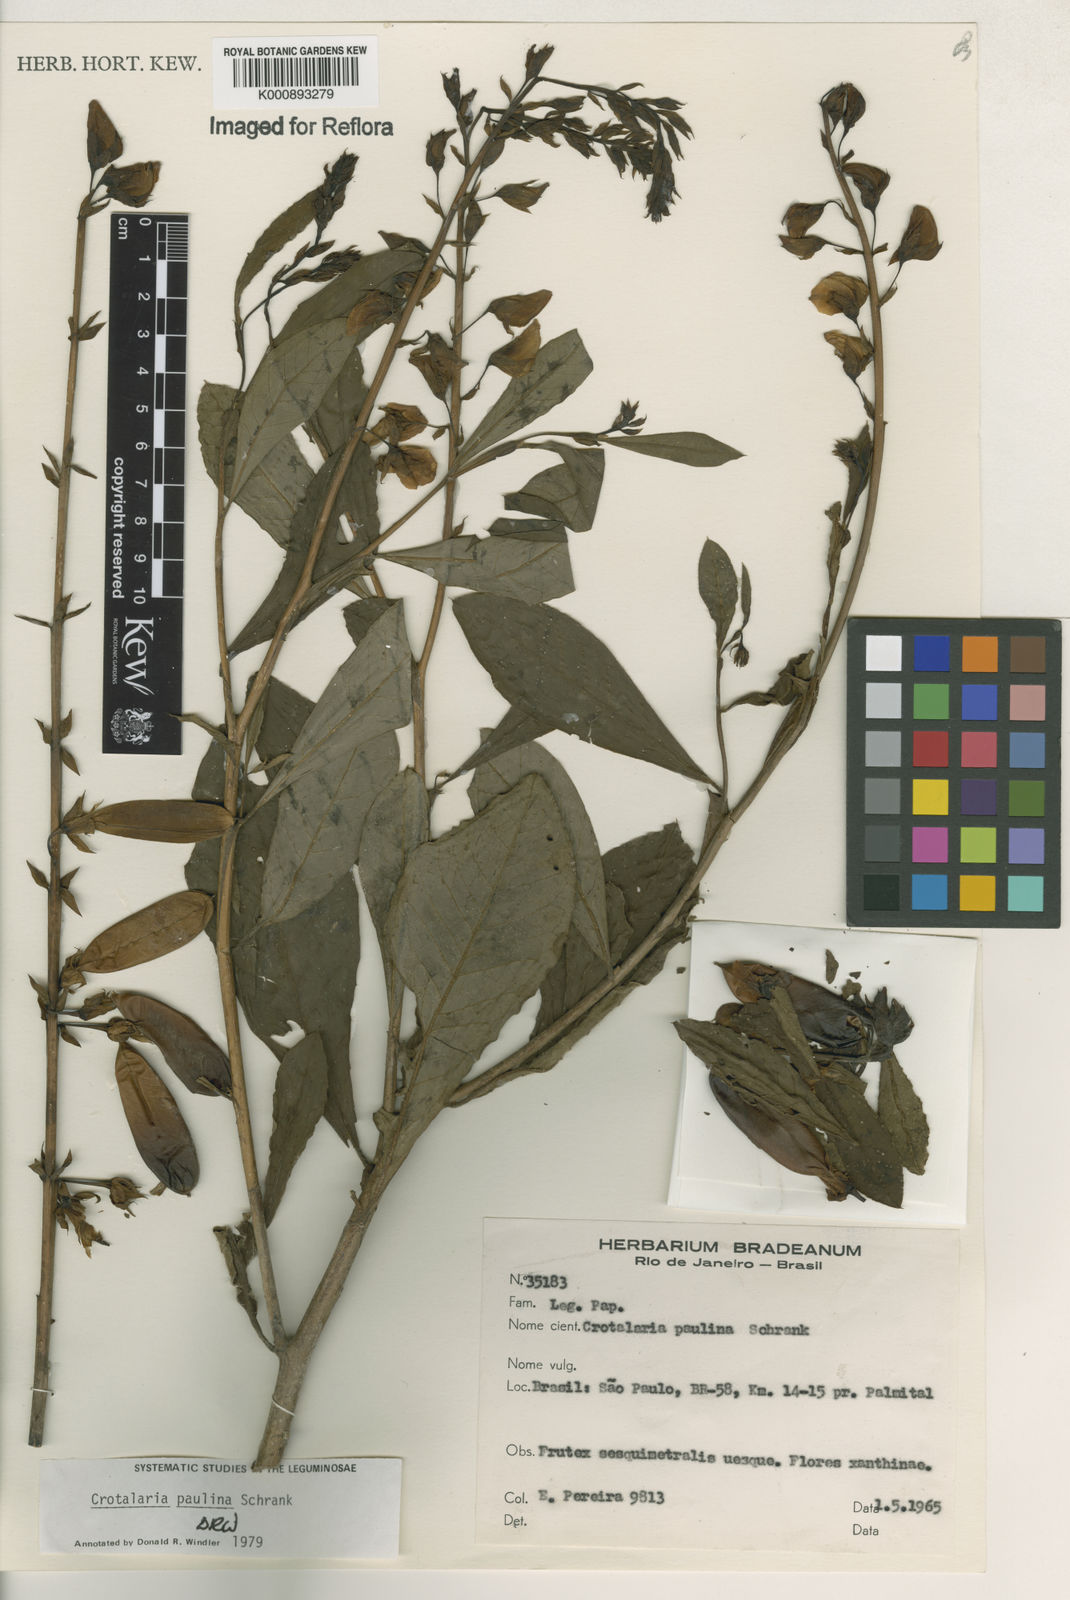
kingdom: Plantae
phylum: Tracheophyta
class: Magnoliopsida
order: Fabales
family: Fabaceae
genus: Crotalaria
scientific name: Crotalaria paulina
